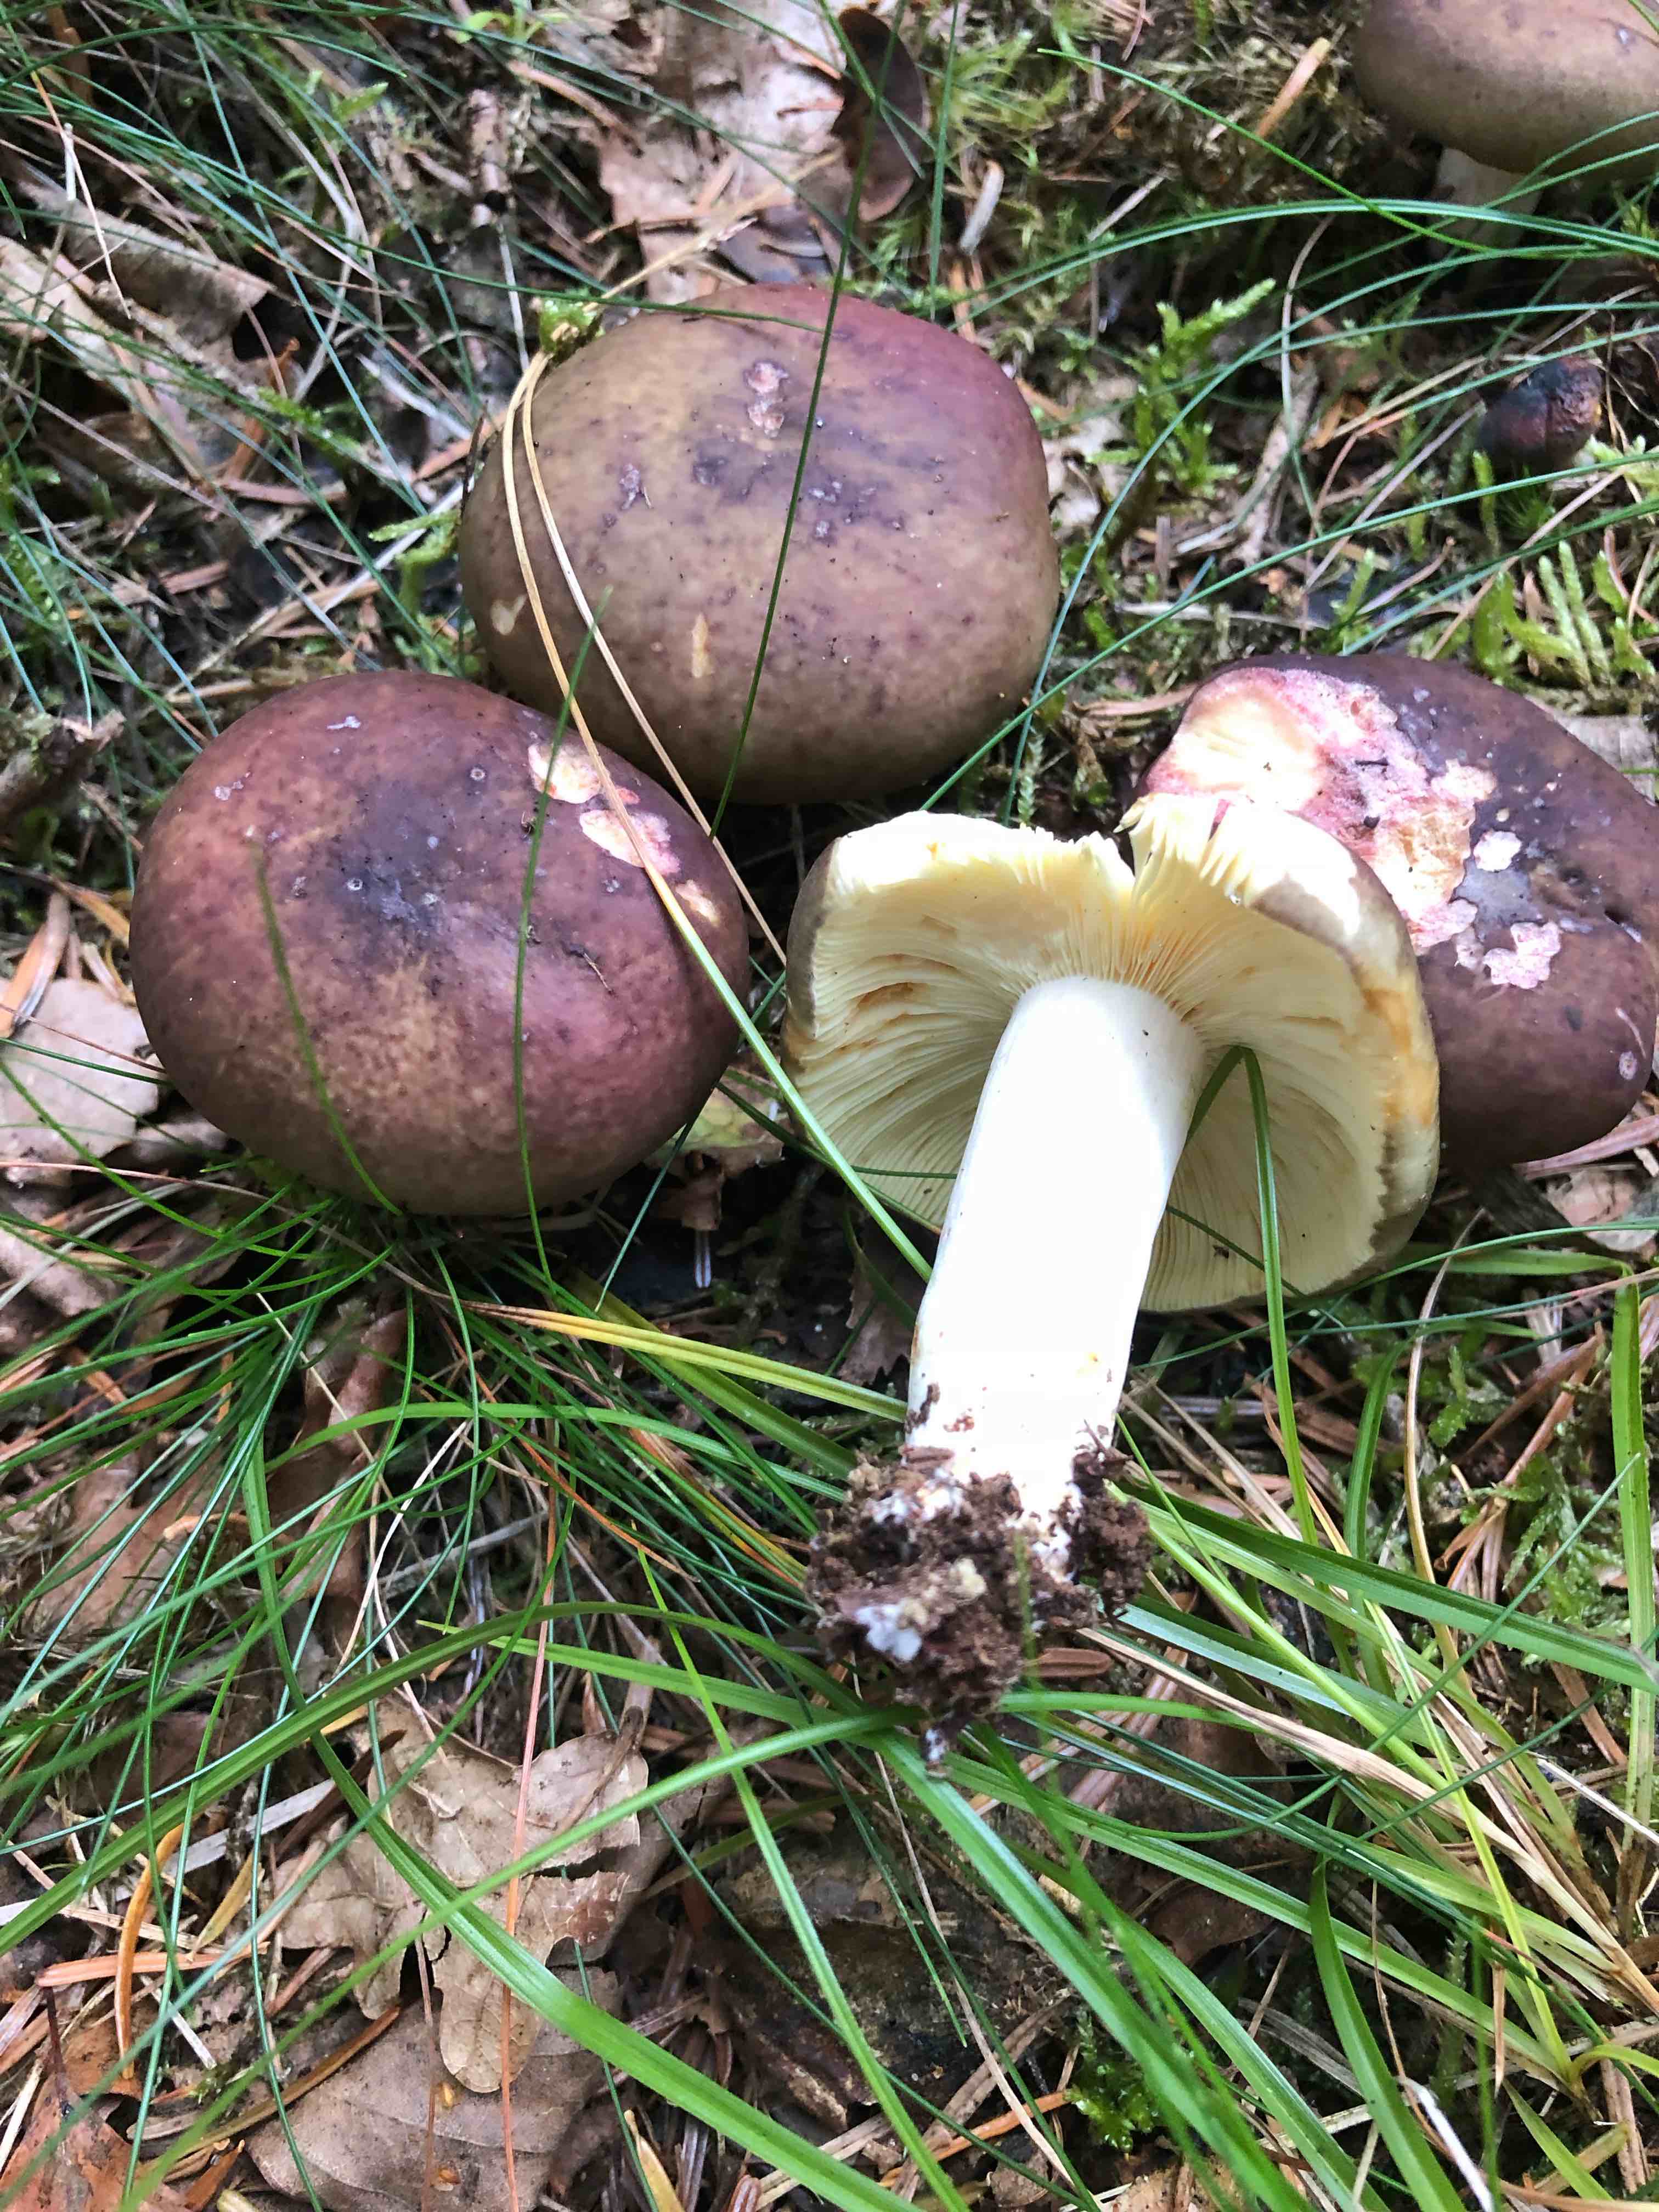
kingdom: Fungi
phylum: Basidiomycota
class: Agaricomycetes
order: Russulales
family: Russulaceae
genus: Russula
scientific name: Russula sardonia
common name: citronbladet skørhat
